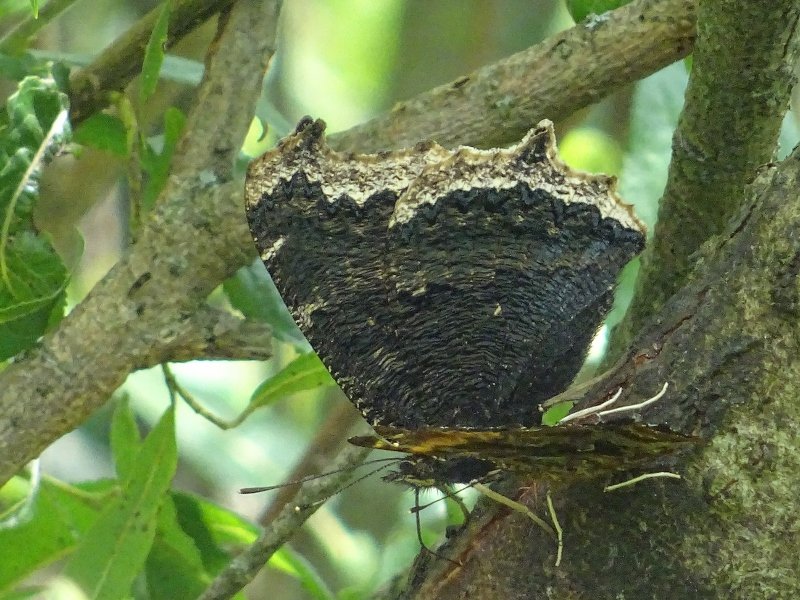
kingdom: Animalia
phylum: Arthropoda
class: Insecta
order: Lepidoptera
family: Nymphalidae
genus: Nymphalis
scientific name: Nymphalis antiopa
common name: Mourning Cloak
